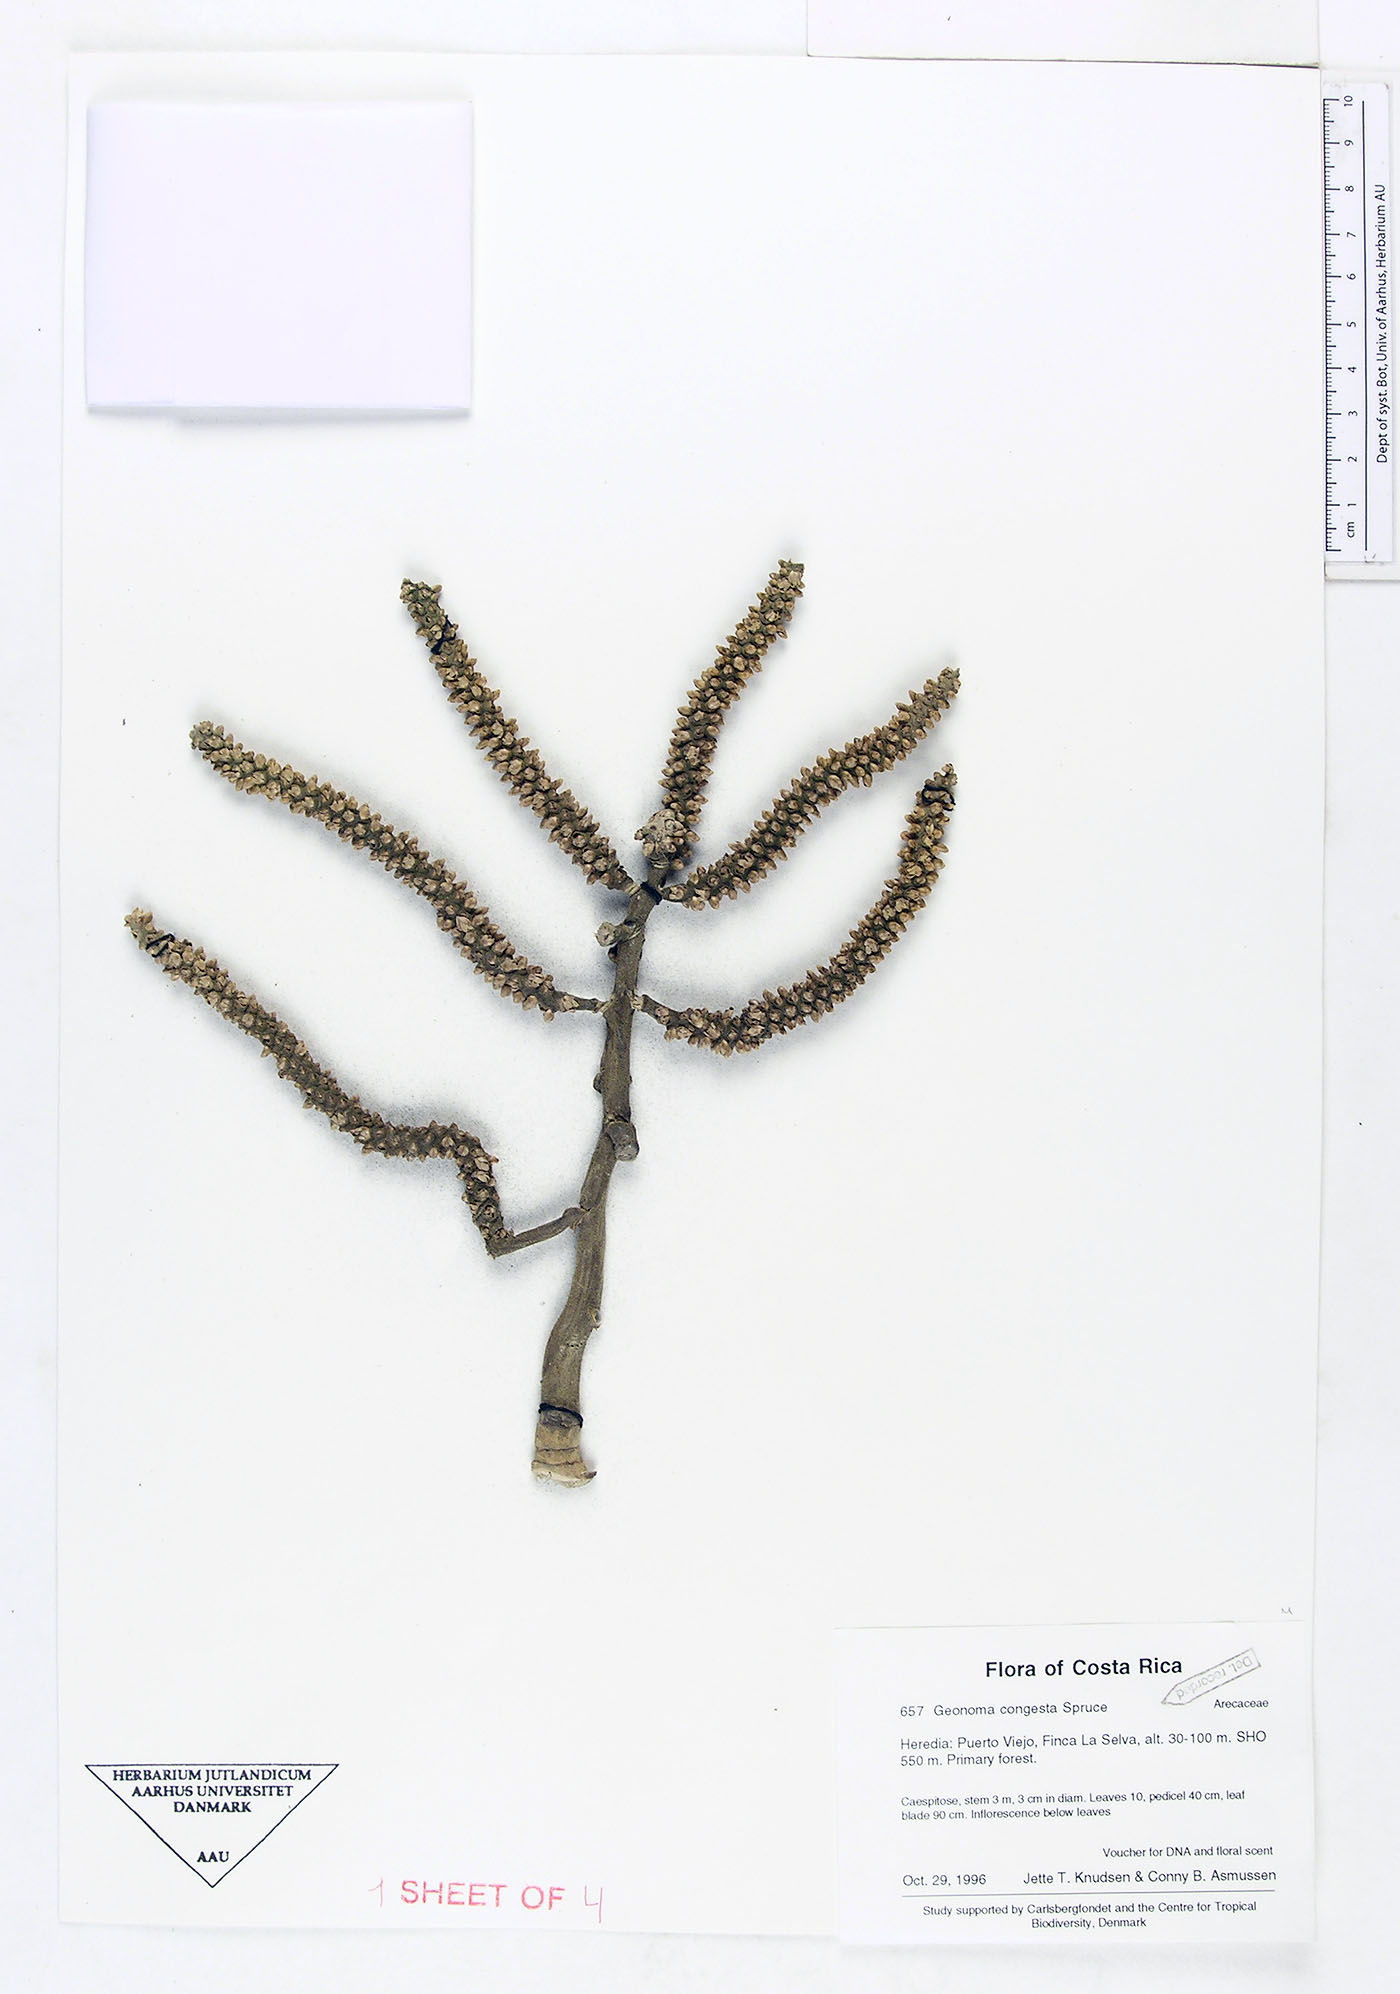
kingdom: Plantae
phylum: Tracheophyta
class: Liliopsida
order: Arecales
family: Arecaceae
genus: Geonoma
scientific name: Geonoma congesta
